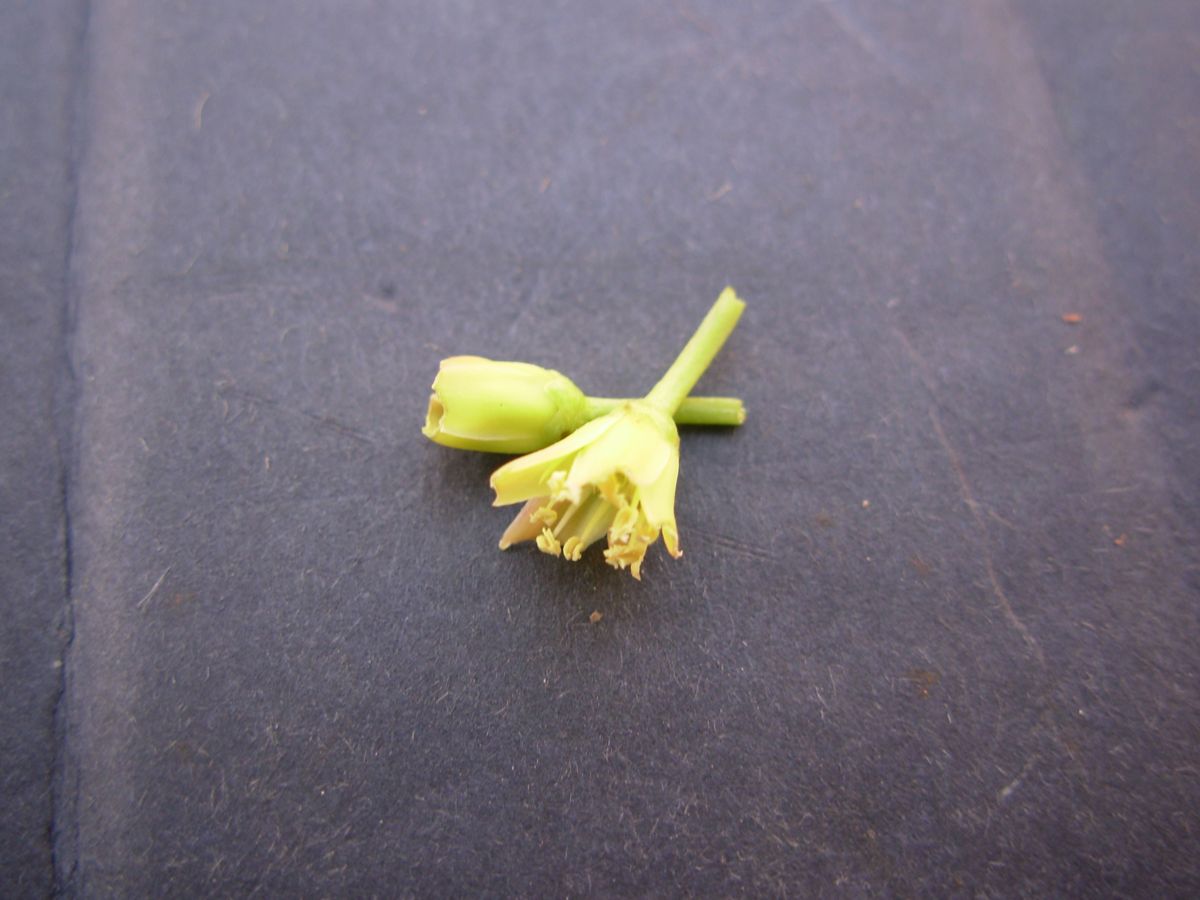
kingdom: Plantae
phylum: Tracheophyta
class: Magnoliopsida
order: Sapindales
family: Simaroubaceae
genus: Simarouba
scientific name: Simarouba glauca
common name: Dysentery-bark
